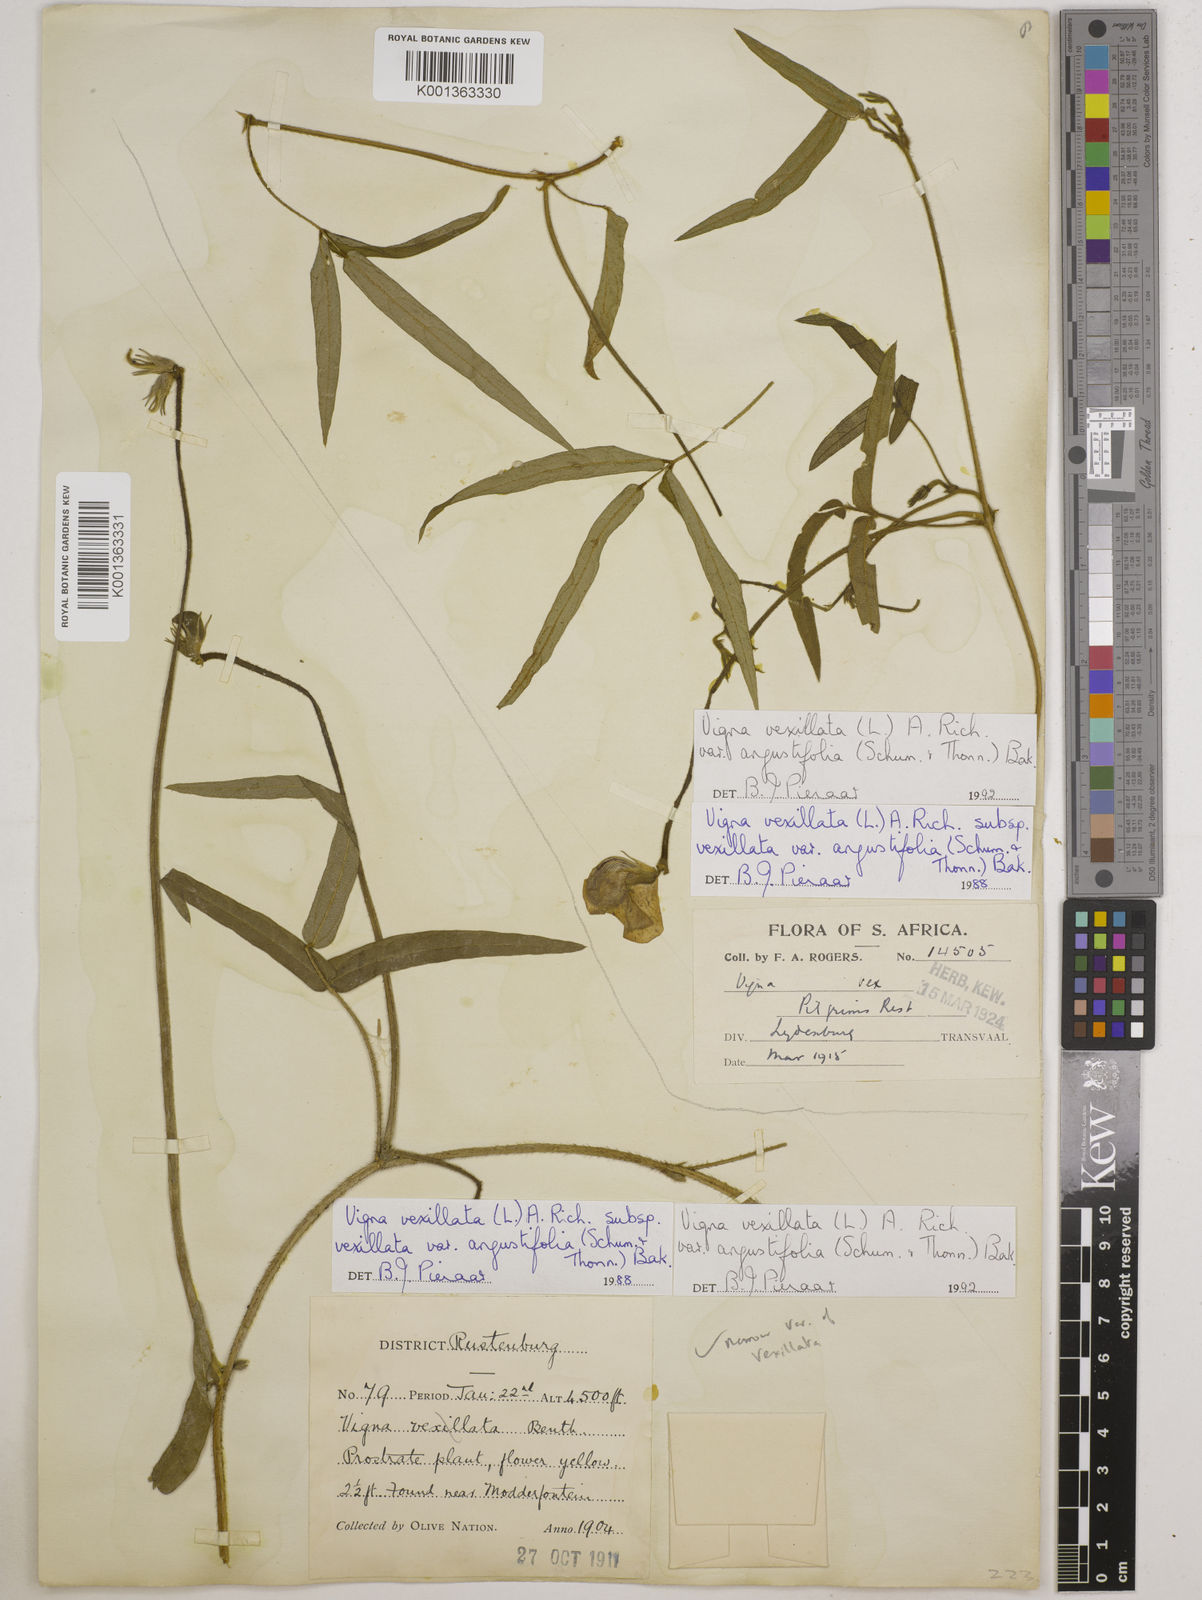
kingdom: Plantae
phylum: Tracheophyta
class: Magnoliopsida
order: Fabales
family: Fabaceae
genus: Vigna
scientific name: Vigna
